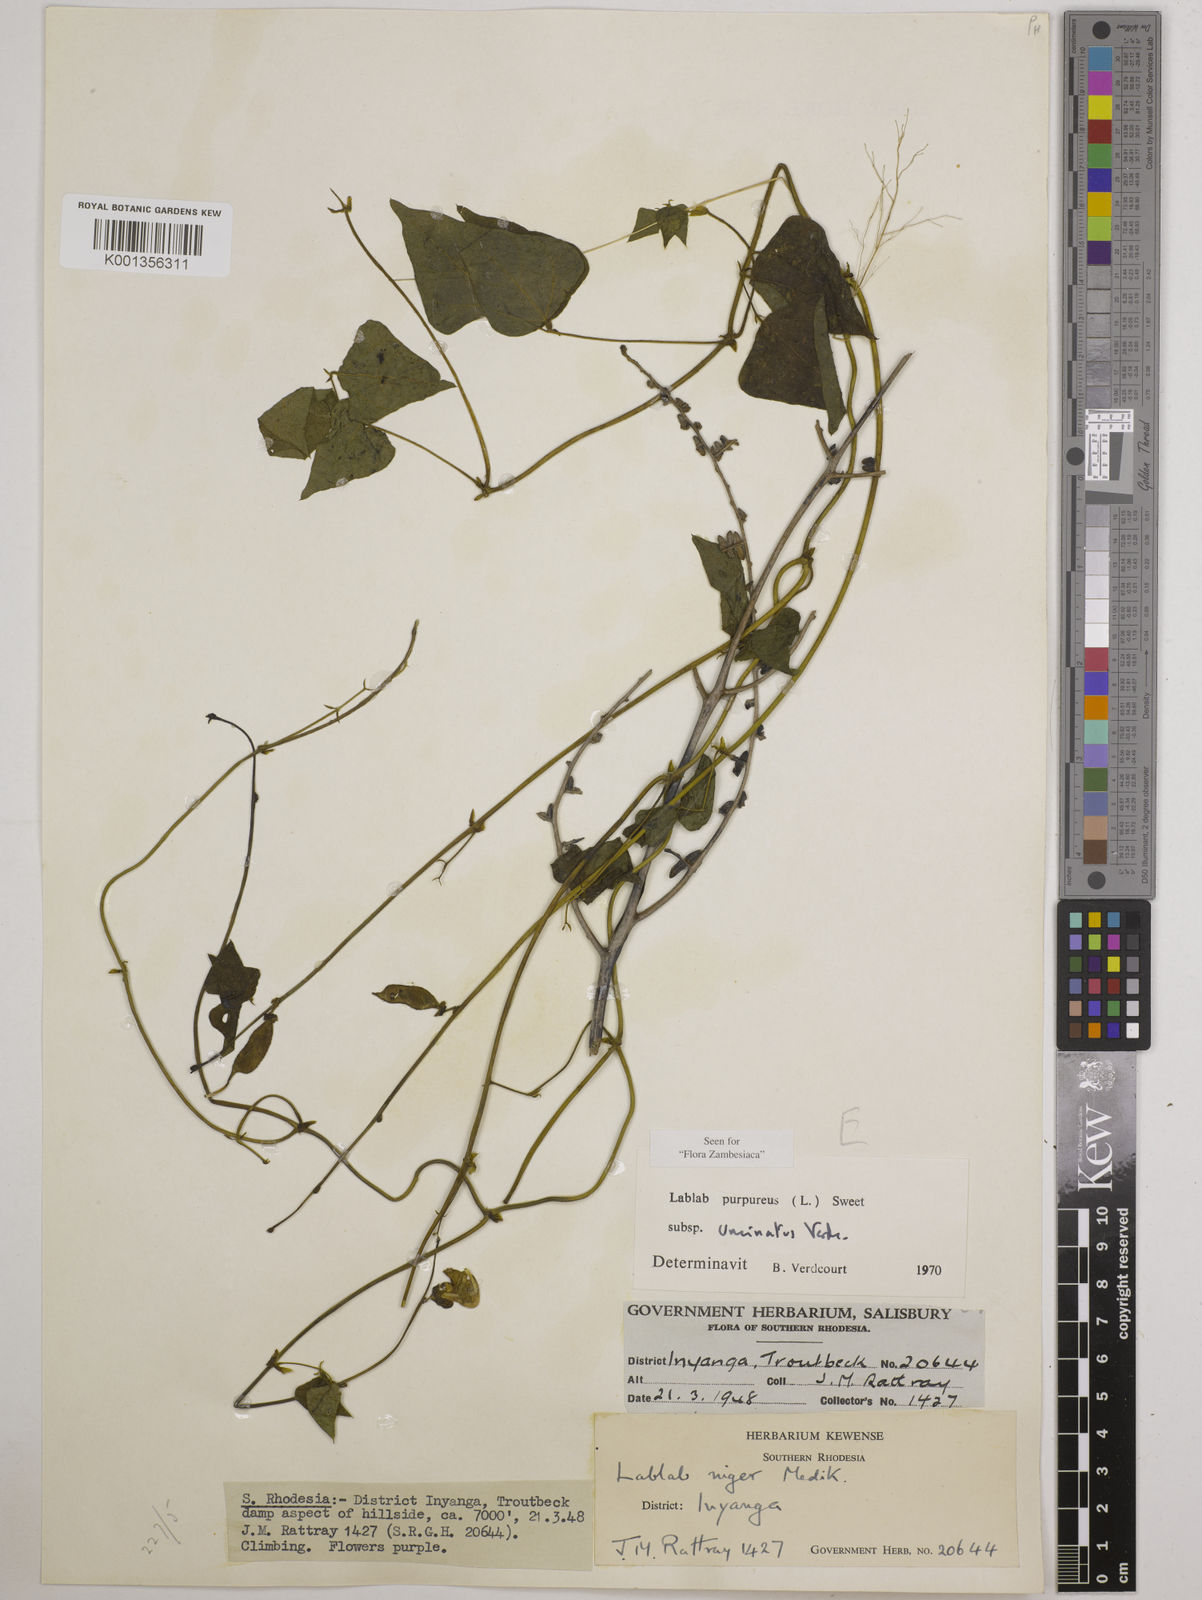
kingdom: Plantae
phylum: Tracheophyta
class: Magnoliopsida
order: Fabales
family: Fabaceae
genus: Lablab
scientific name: Lablab purpureus
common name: Lablab-bean
